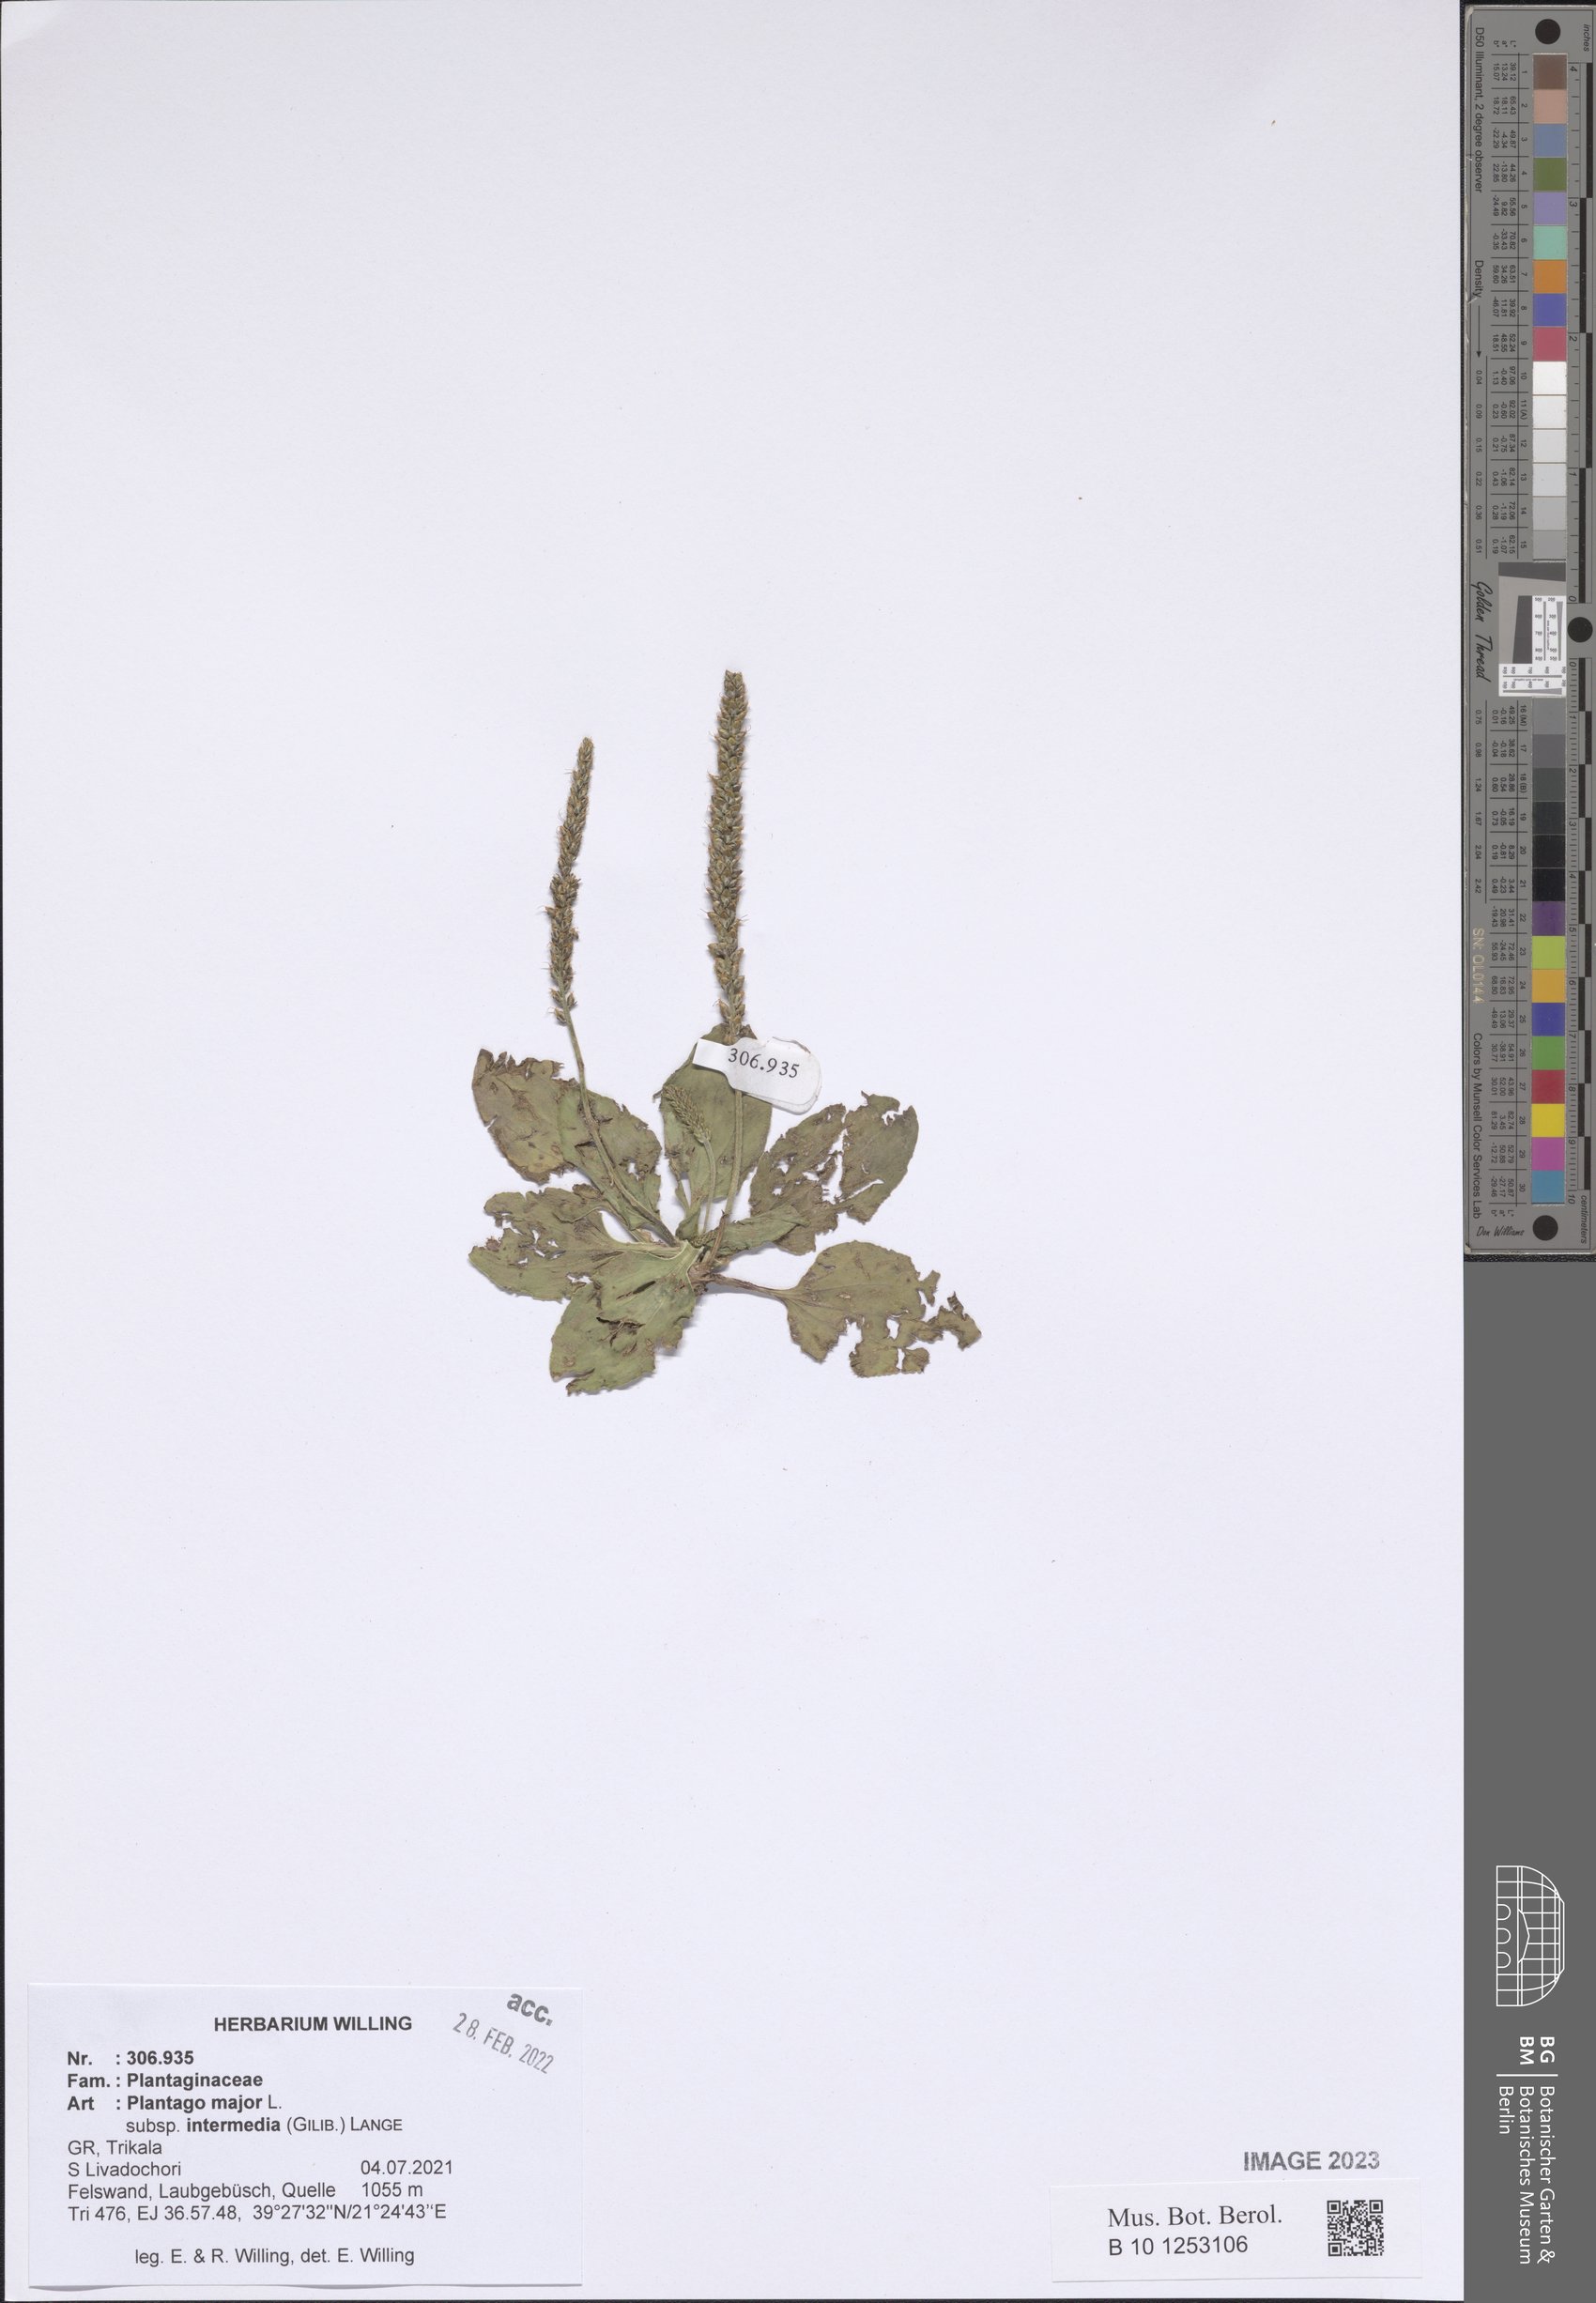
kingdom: Plantae
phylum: Tracheophyta
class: Magnoliopsida
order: Lamiales
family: Plantaginaceae
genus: Plantago
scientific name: Plantago uliginosa
